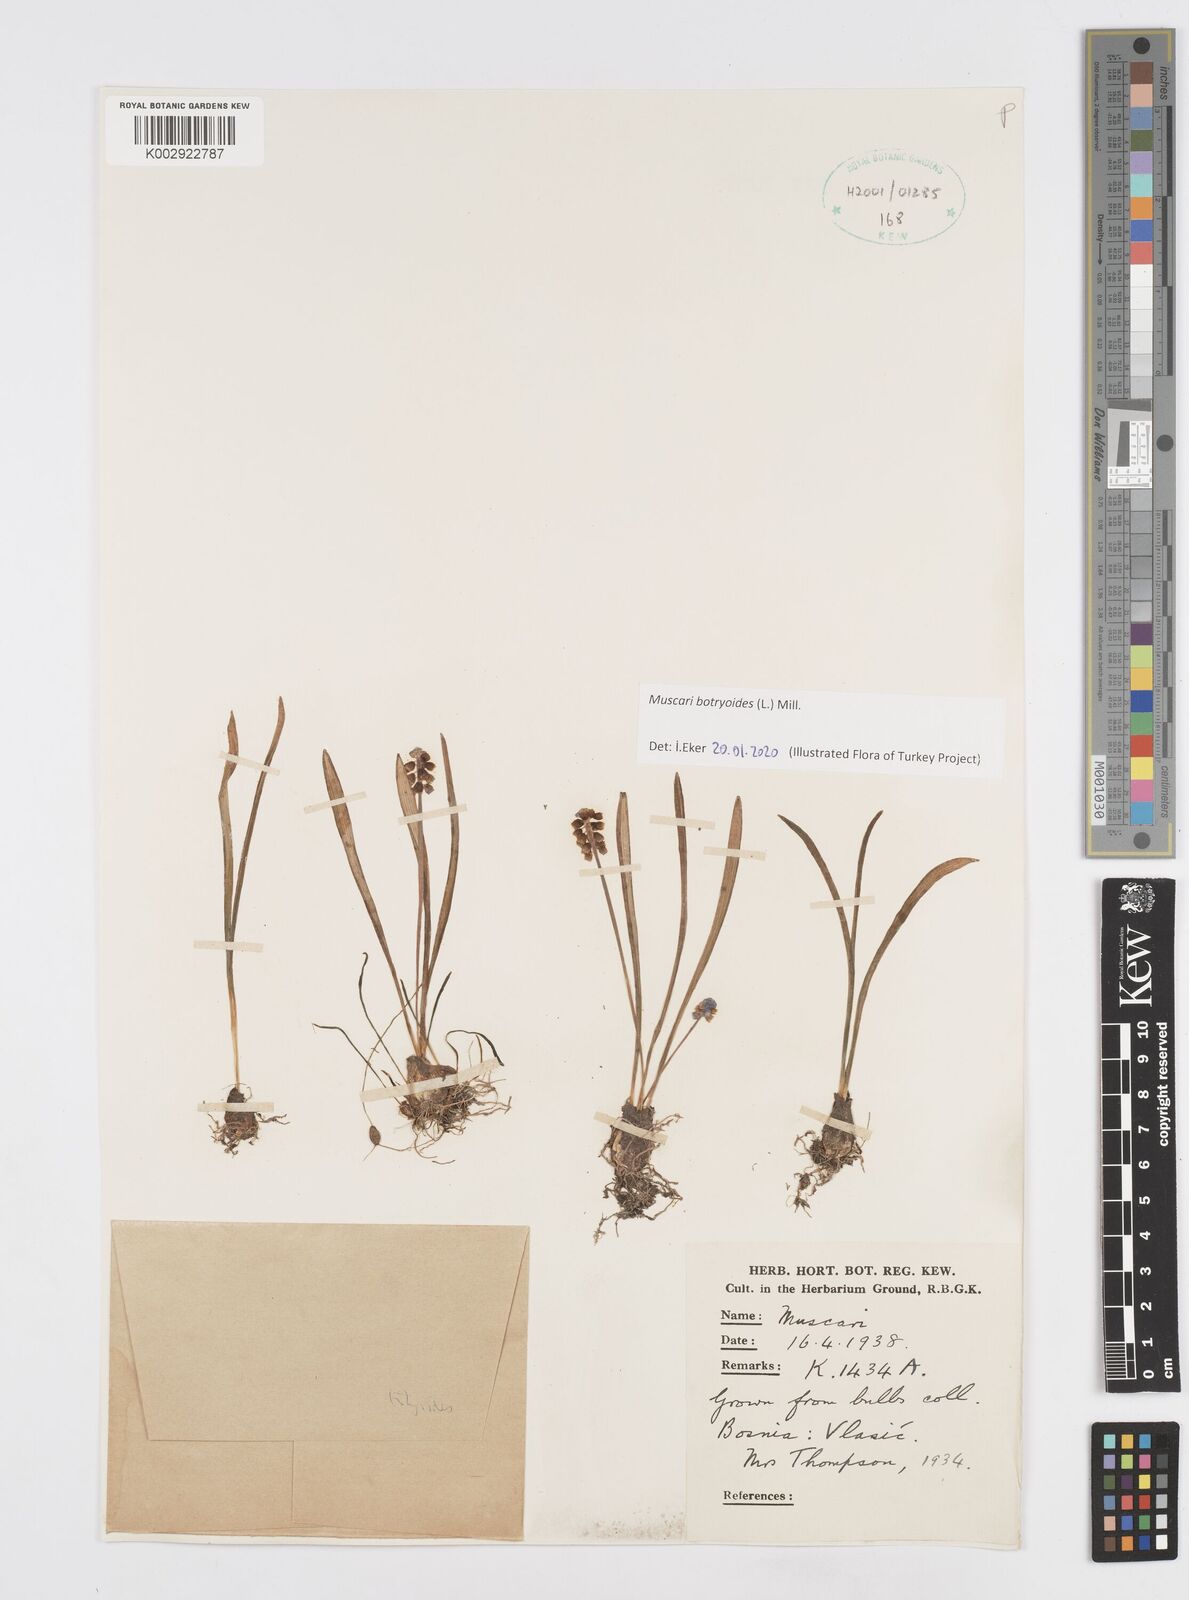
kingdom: Plantae
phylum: Tracheophyta
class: Liliopsida
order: Asparagales
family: Asparagaceae
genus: Muscari
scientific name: Muscari botryoides
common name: Compact grape-hyacinth
